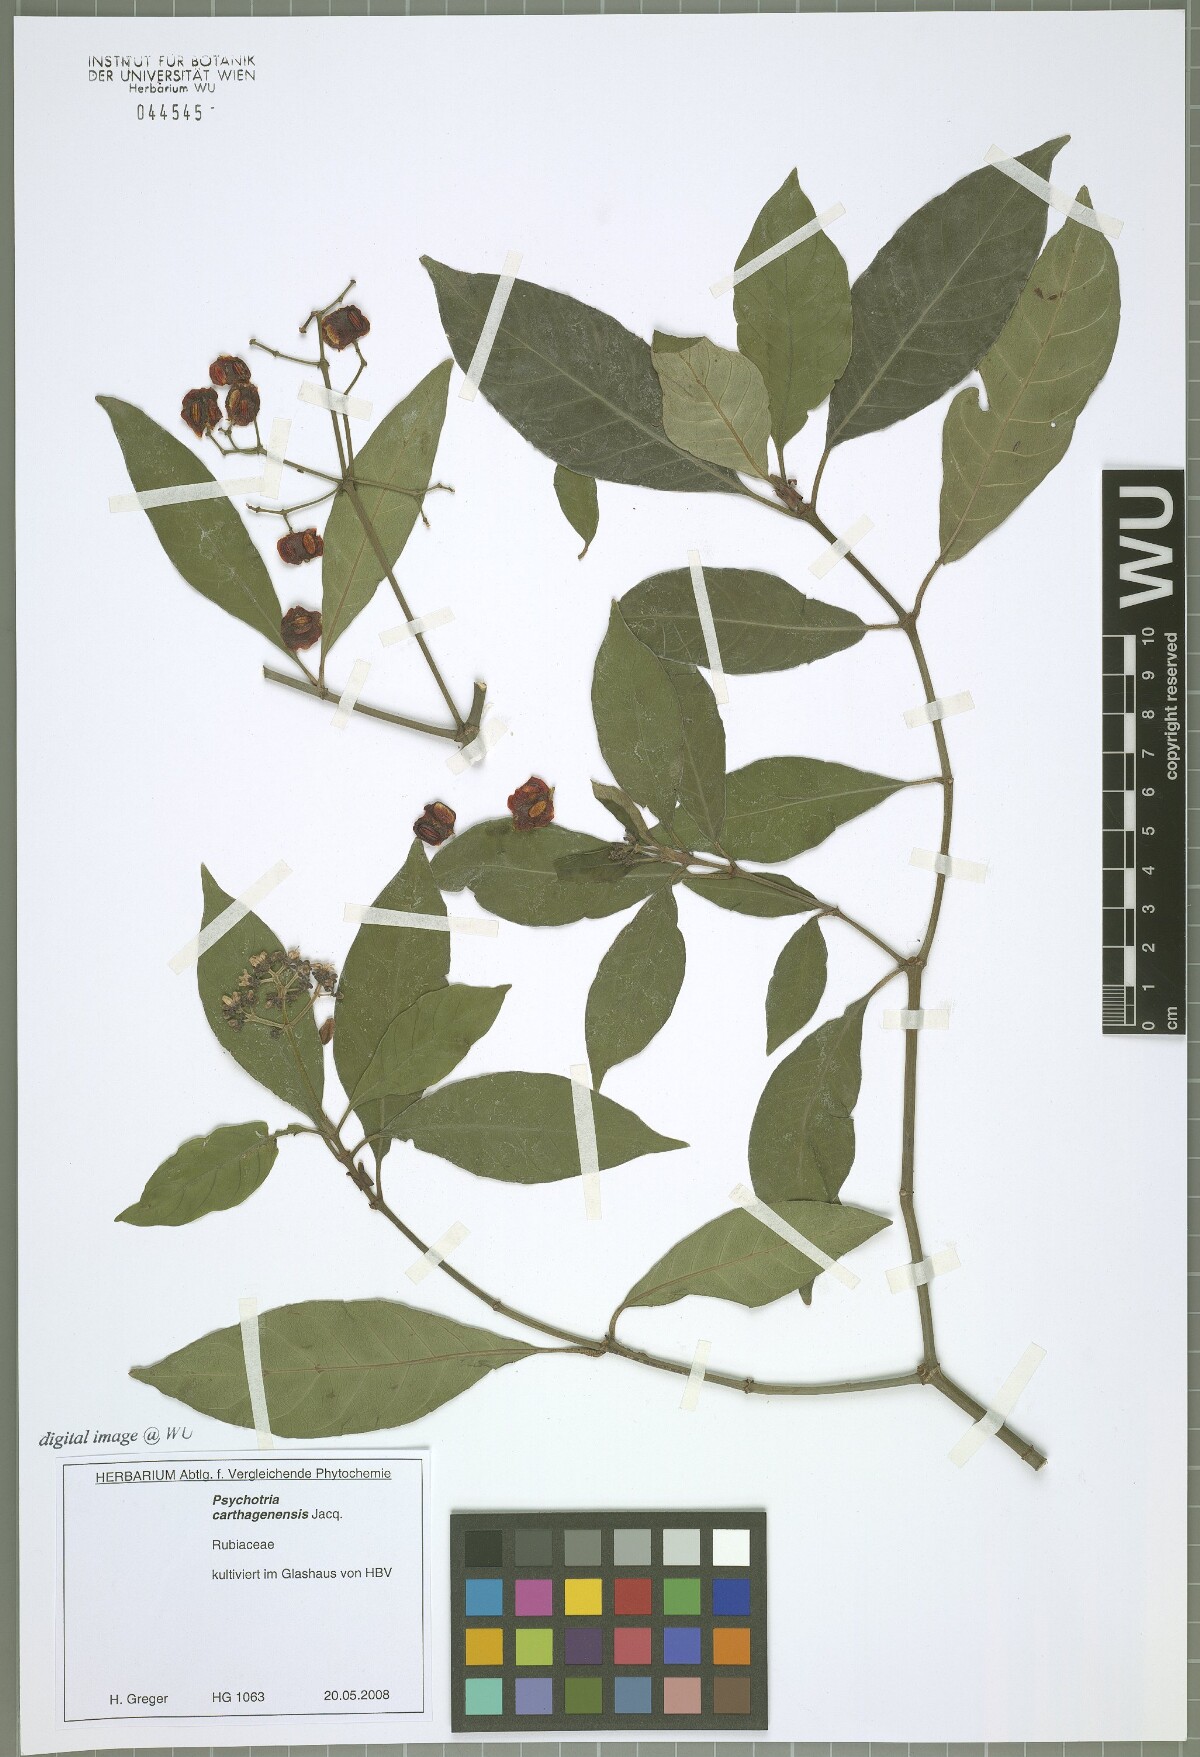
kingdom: Plantae
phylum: Tracheophyta
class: Magnoliopsida
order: Gentianales
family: Rubiaceae
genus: Psychotria
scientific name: Psychotria carthagenensis
